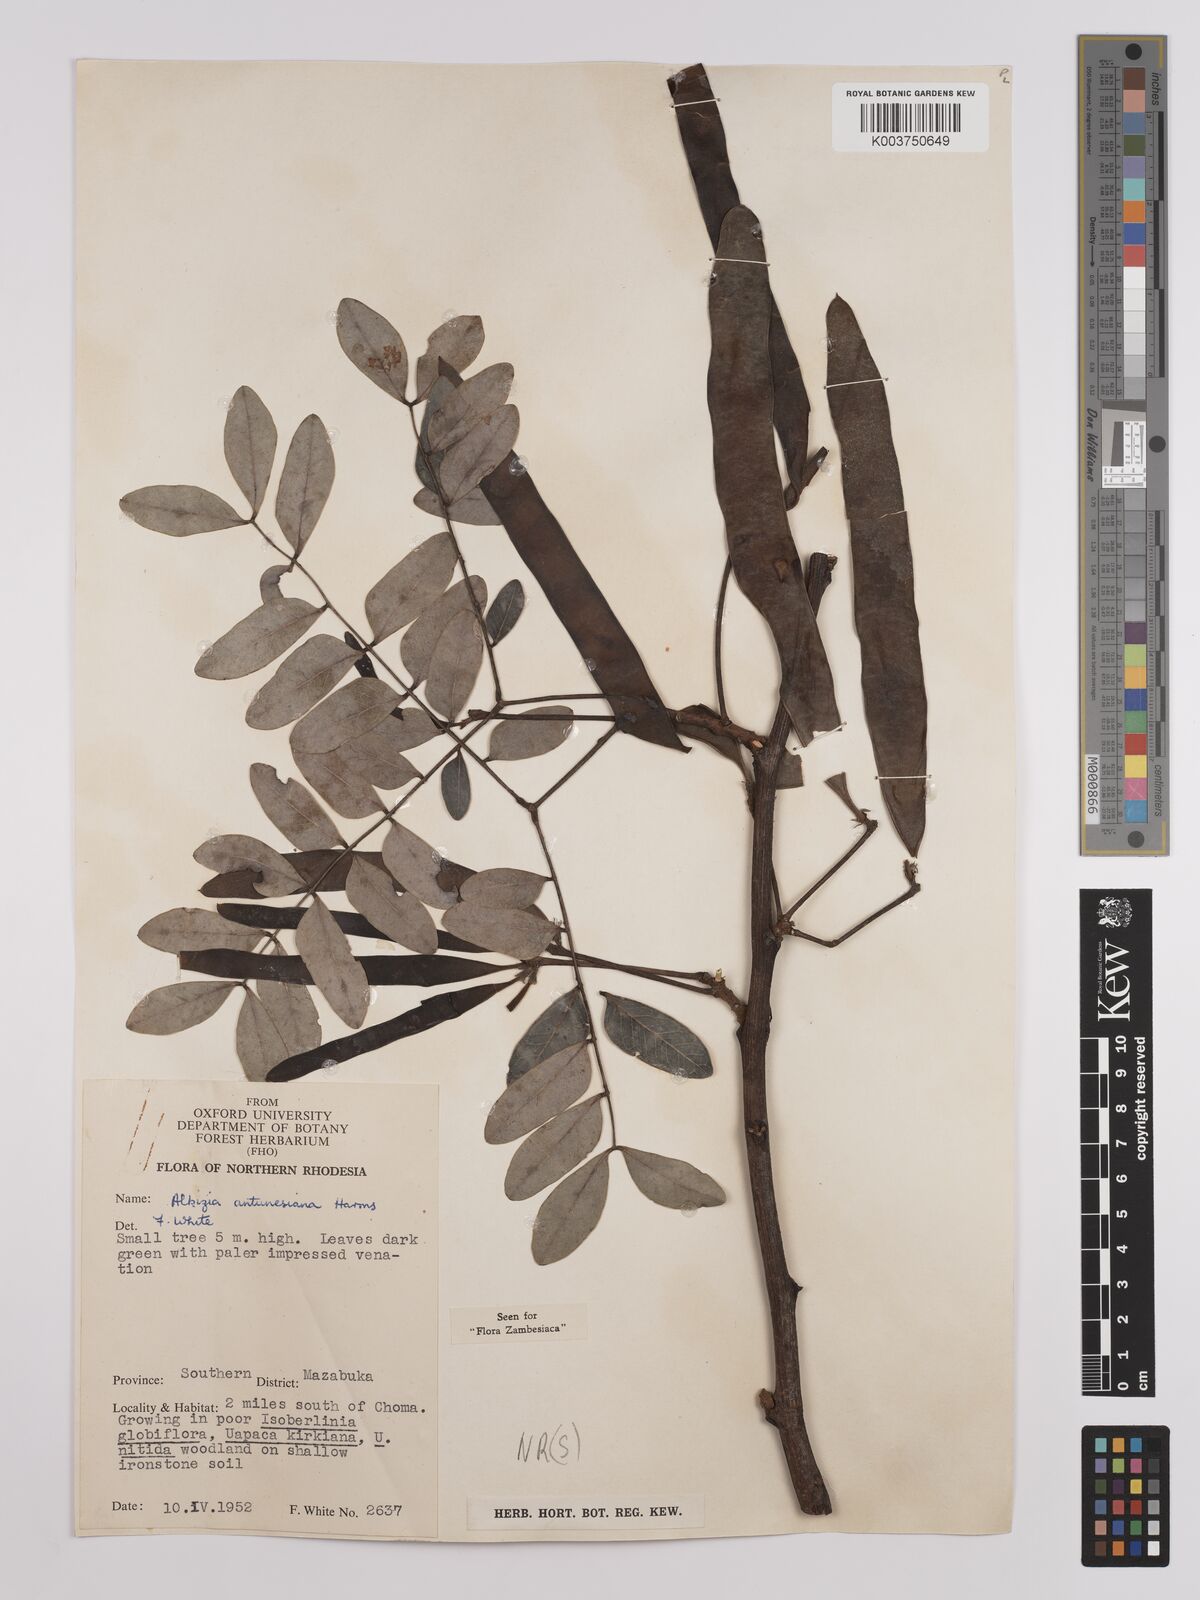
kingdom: Plantae
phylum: Tracheophyta
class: Magnoliopsida
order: Fabales
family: Fabaceae
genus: Albizia
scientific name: Albizia antunesiana
